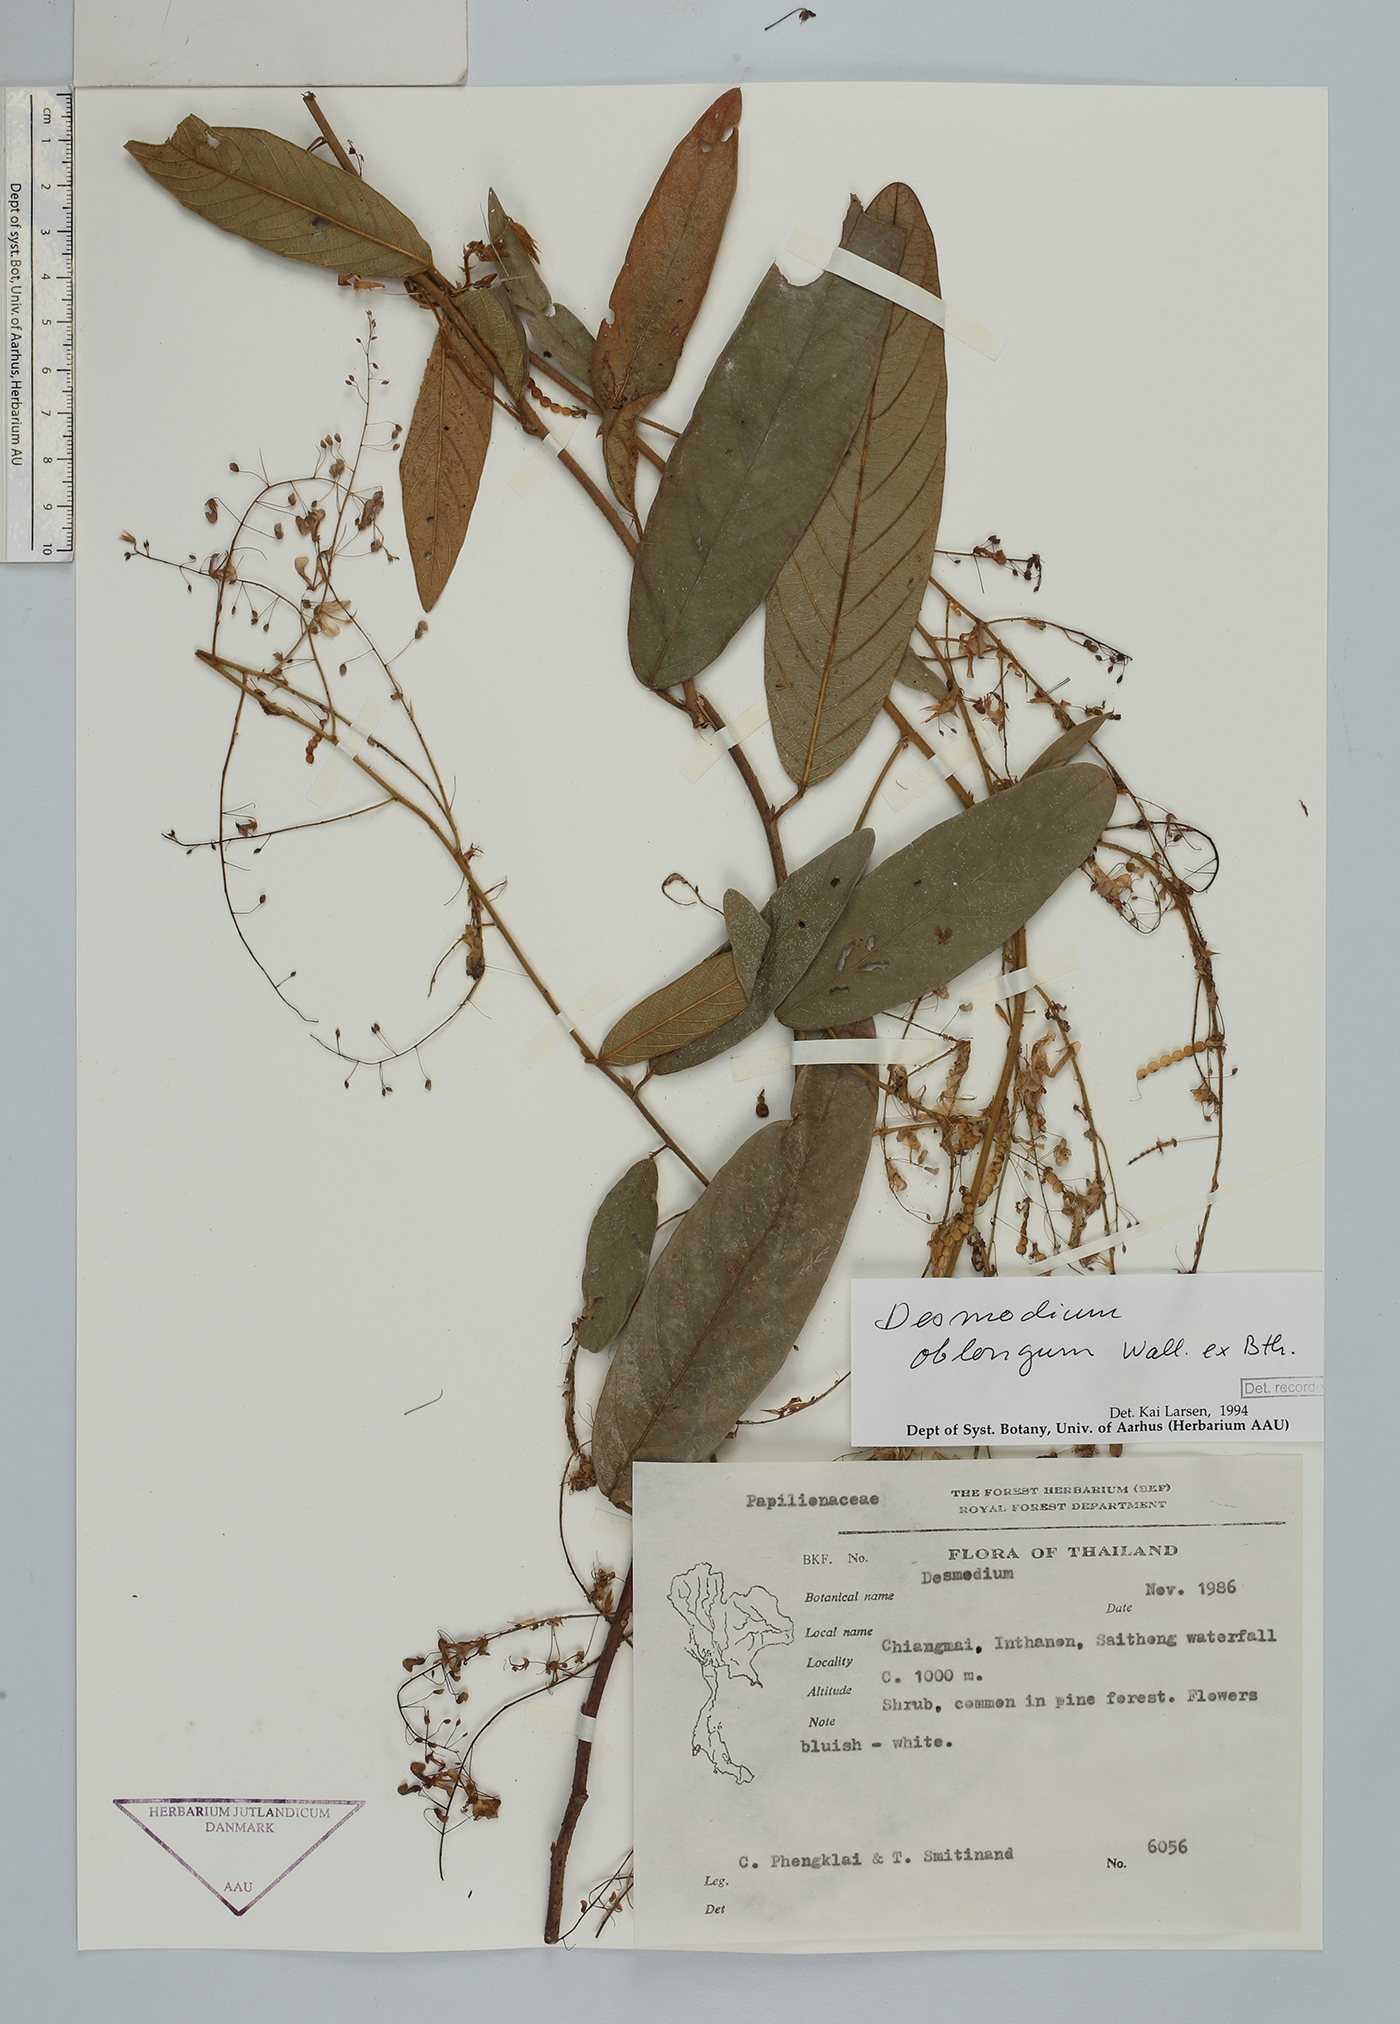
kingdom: Plantae
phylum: Tracheophyta
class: Magnoliopsida
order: Fabales
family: Fabaceae
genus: Uraria
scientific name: Uraria oblonga
